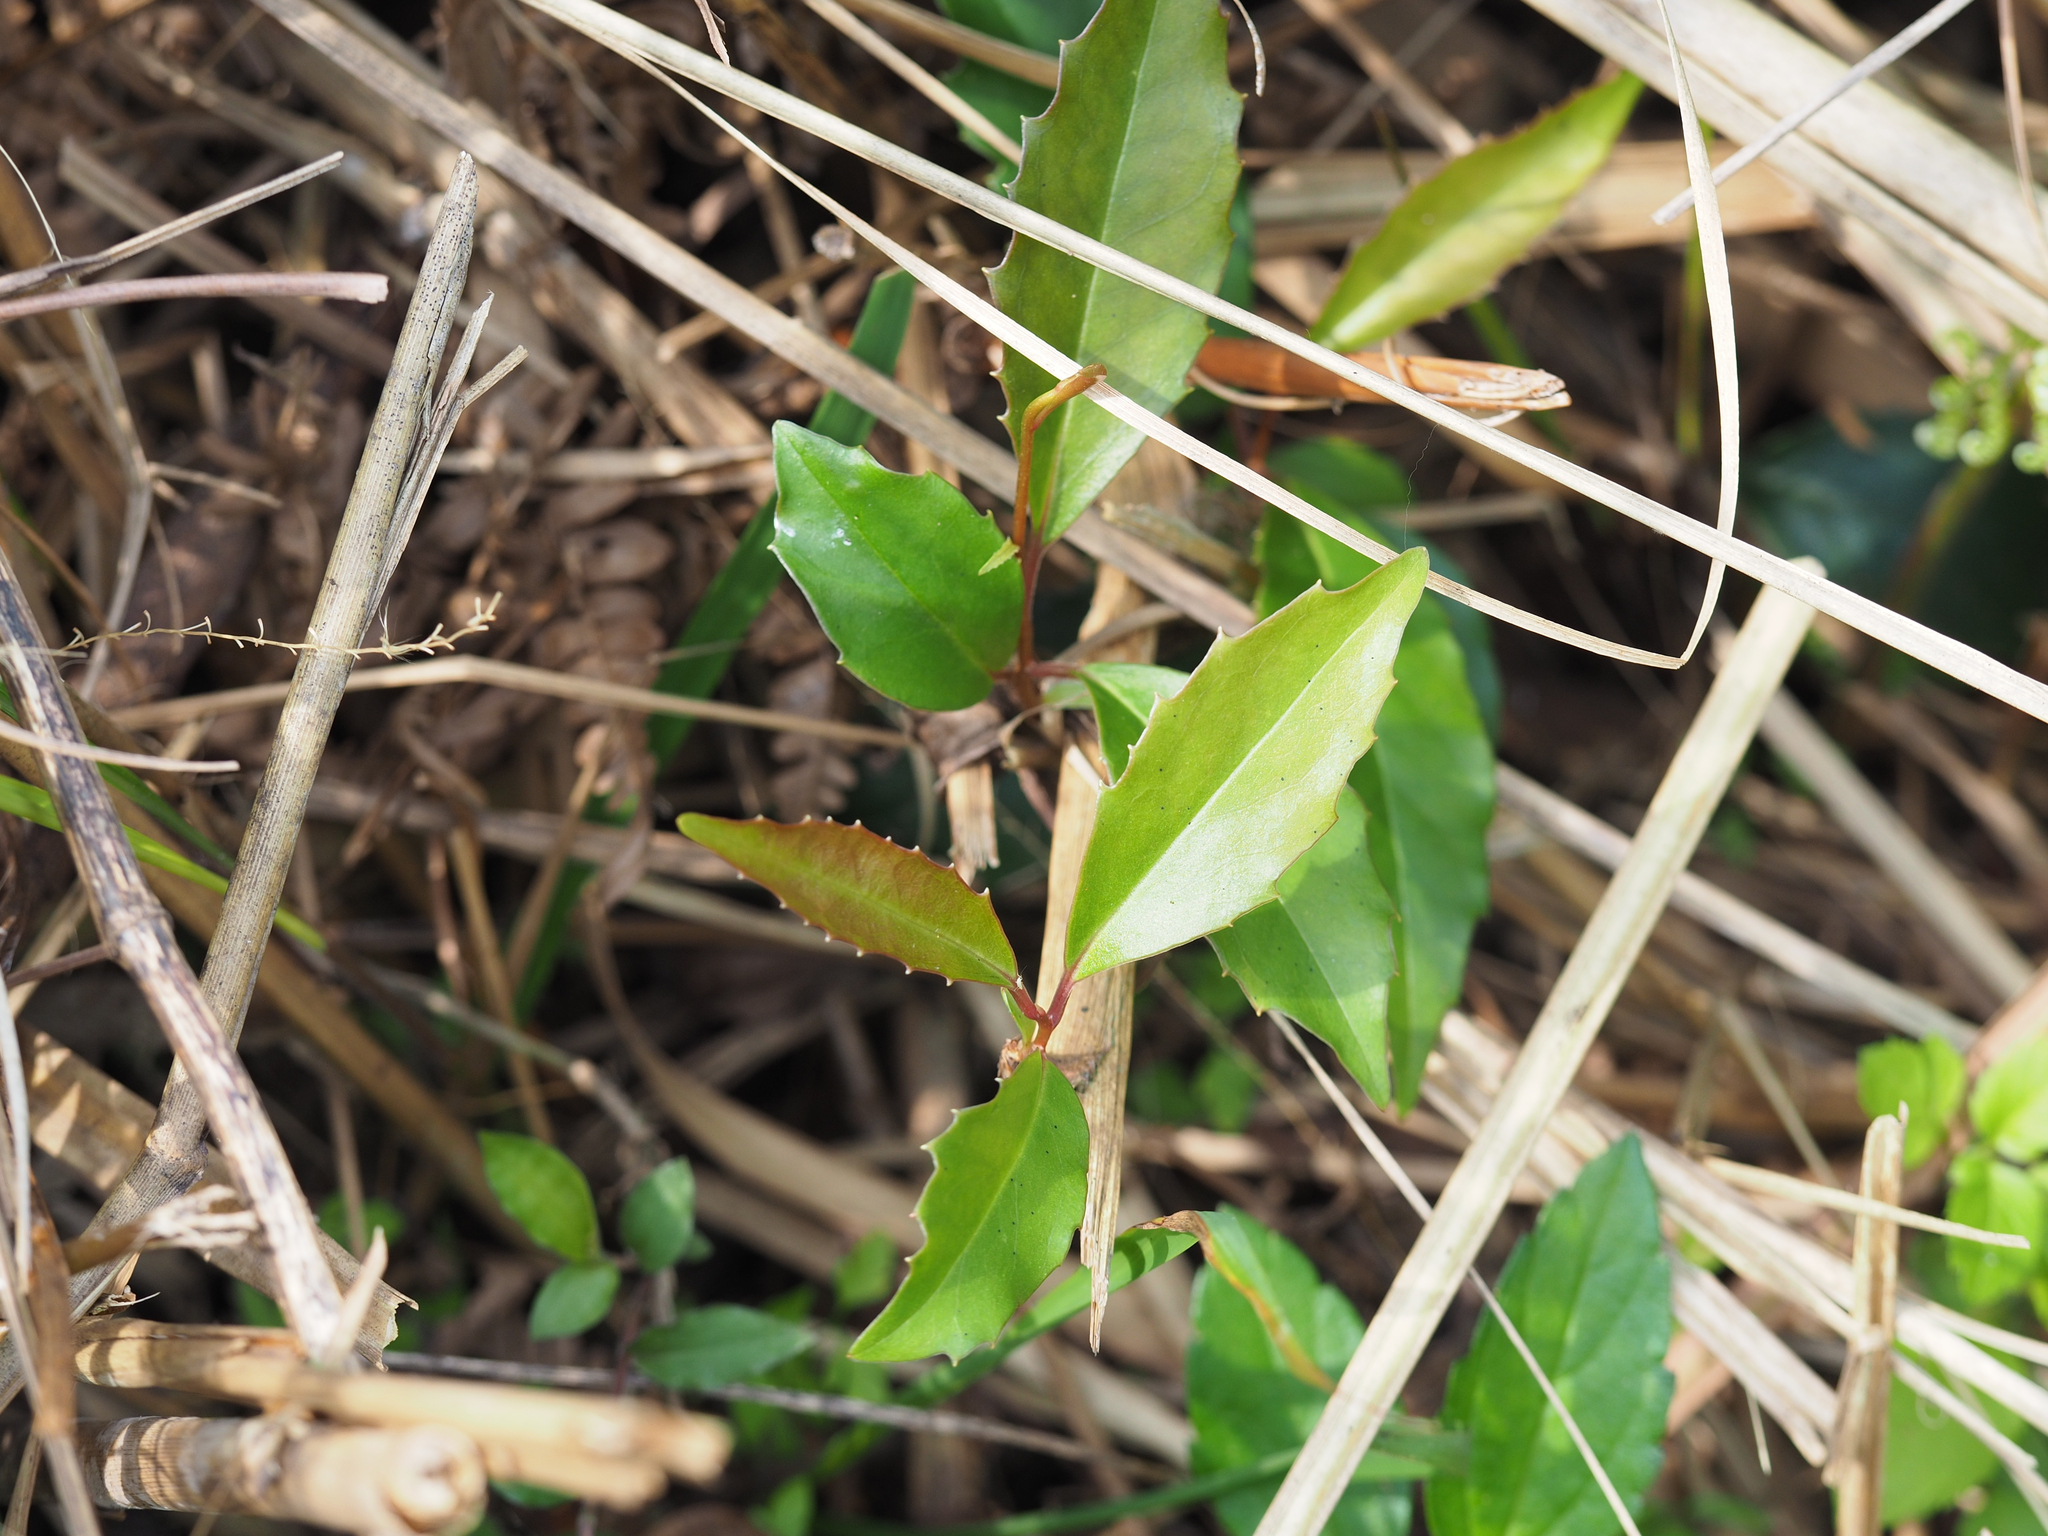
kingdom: Plantae
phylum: Tracheophyta
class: Magnoliopsida
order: Austrobaileyales
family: Schisandraceae
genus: Kadsura
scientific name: Kadsura matsudae
